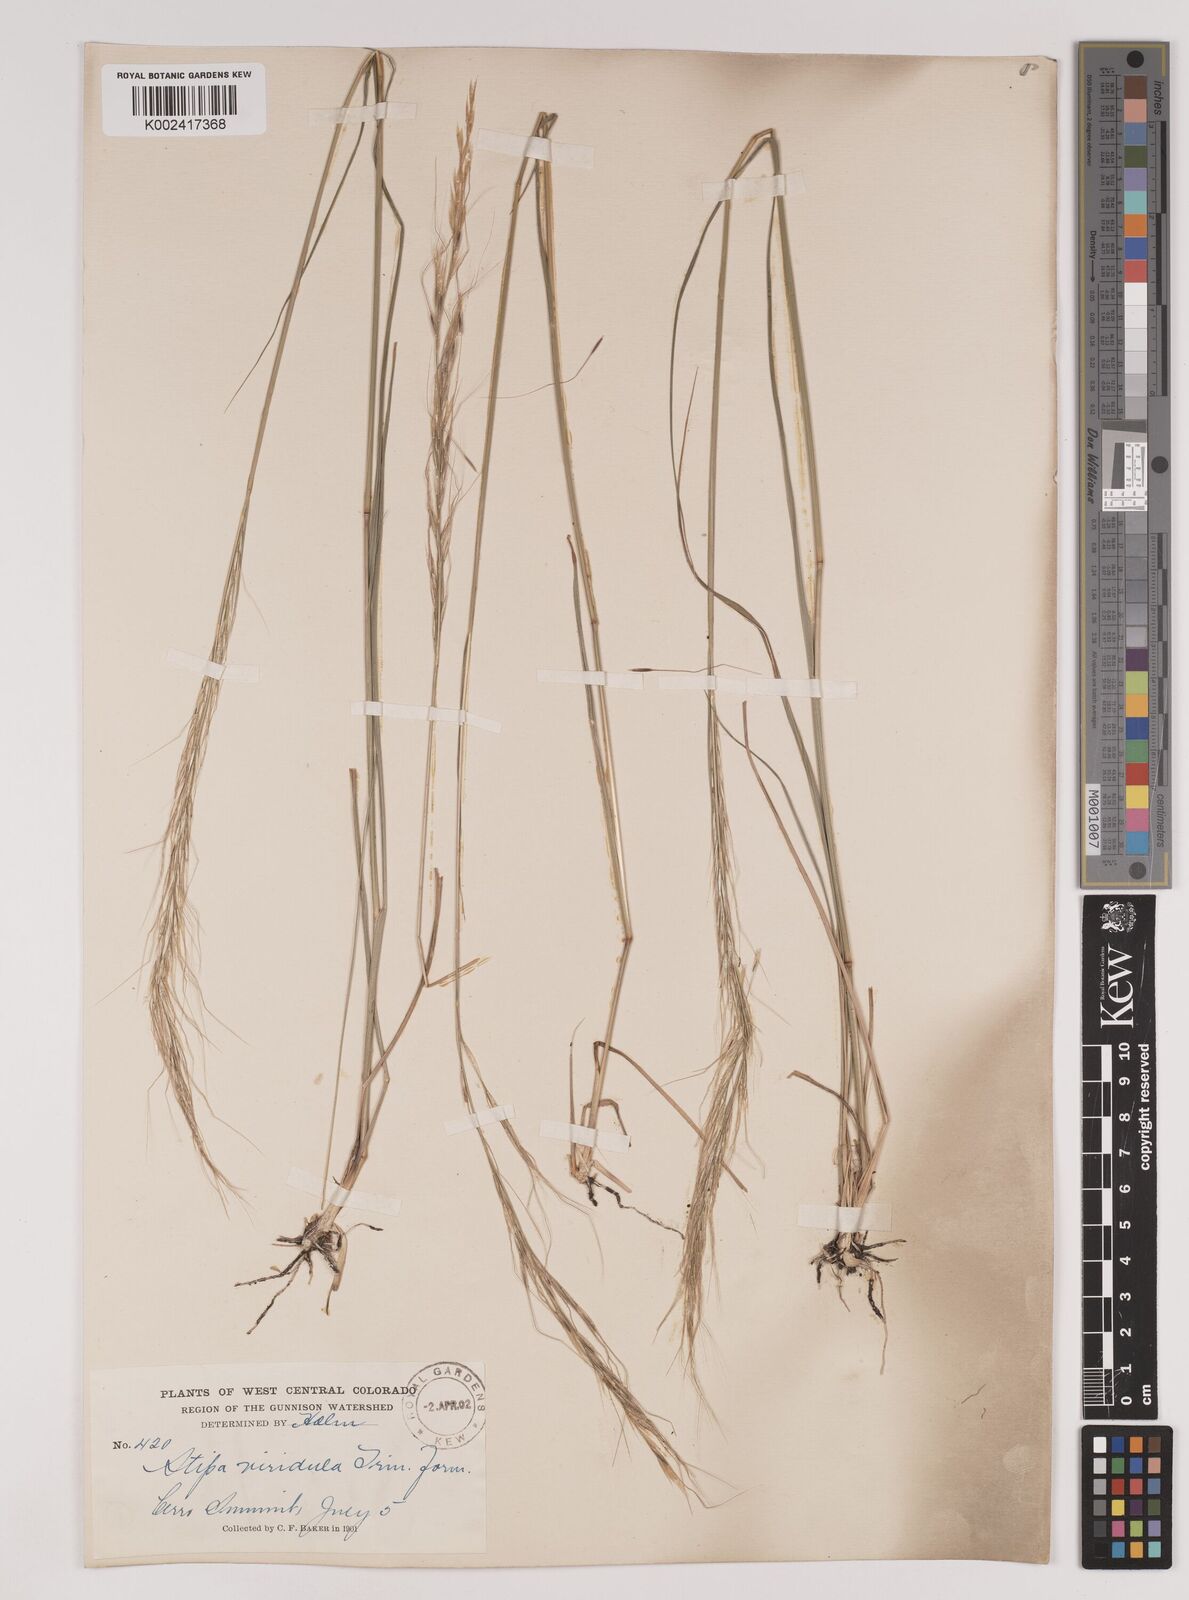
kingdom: Plantae
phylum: Tracheophyta
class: Liliopsida
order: Poales
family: Poaceae
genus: Nassella
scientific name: Nassella viridula
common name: Green needlegrass
